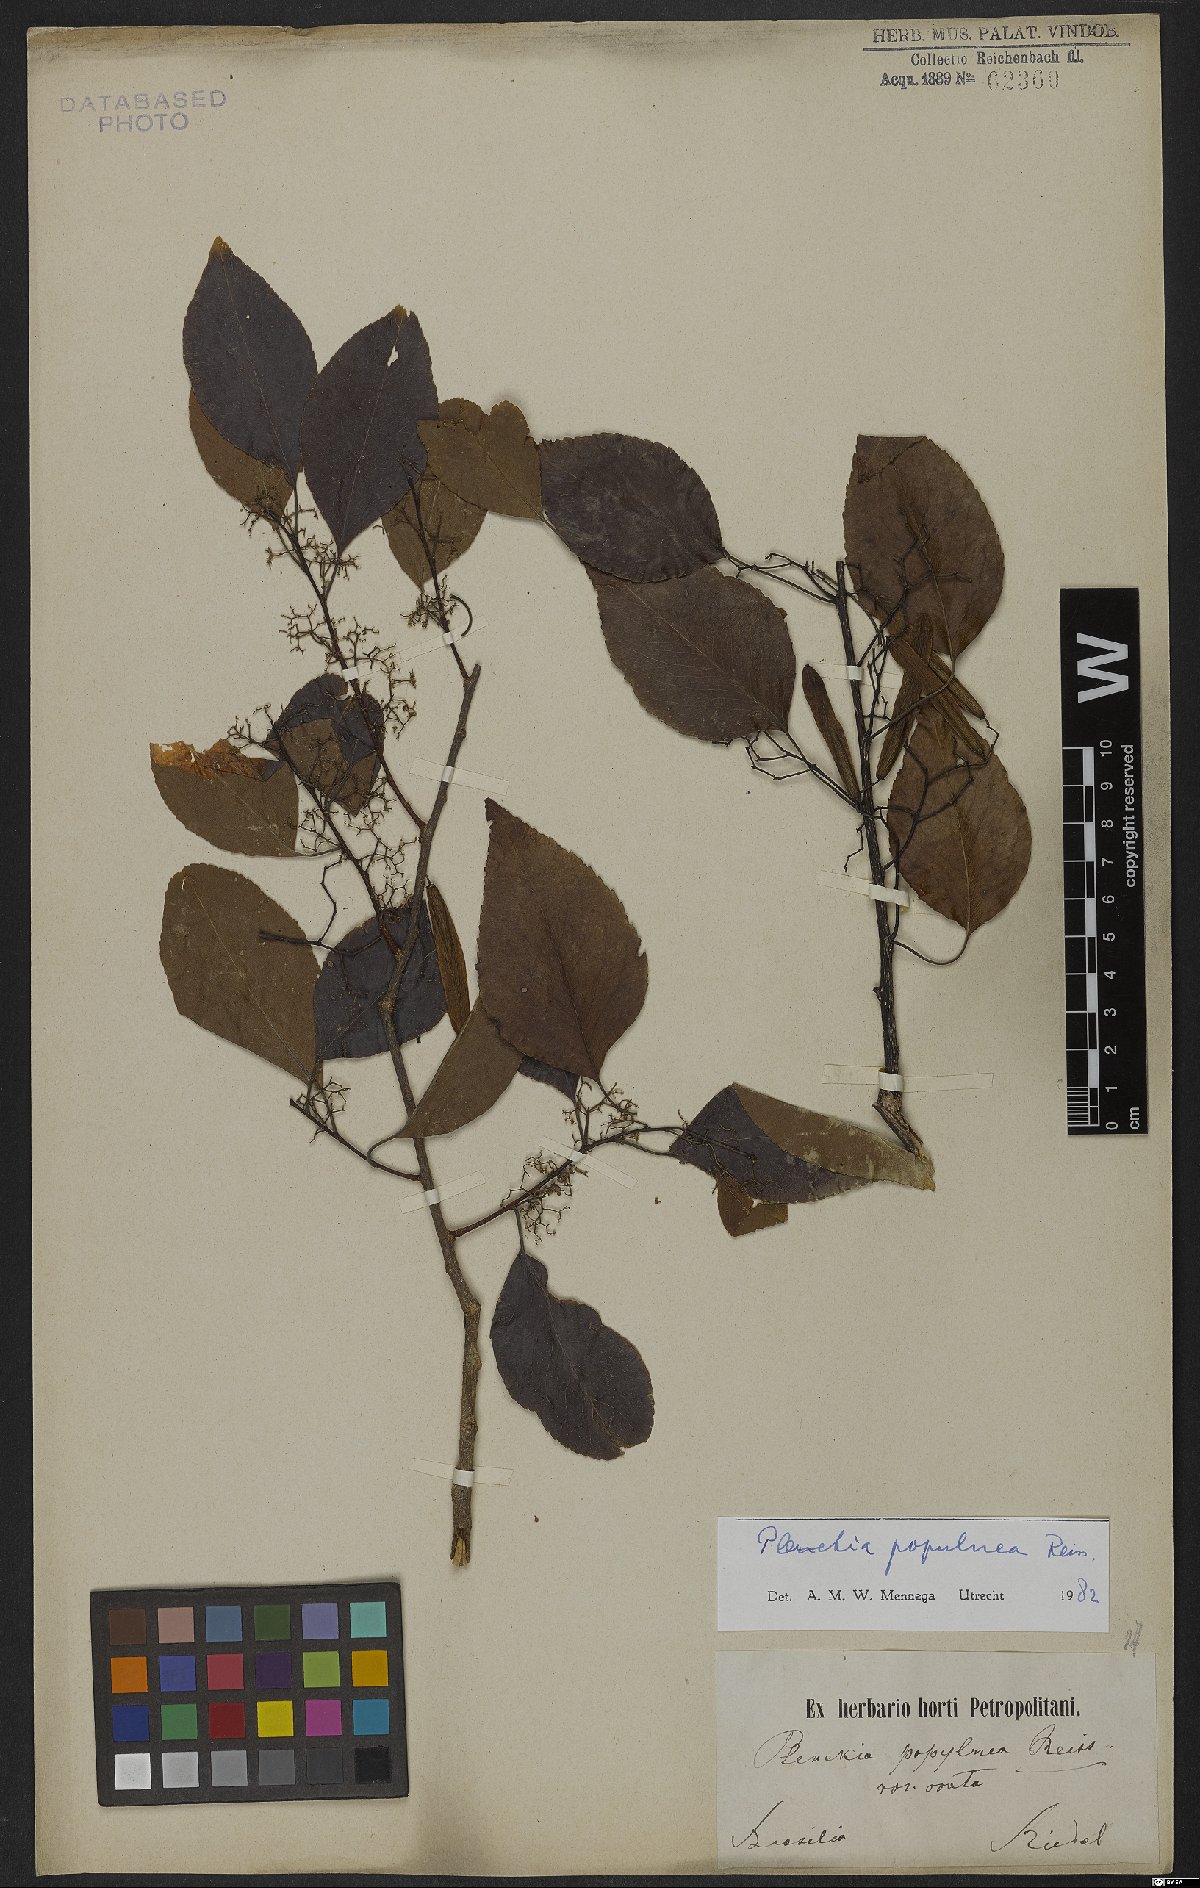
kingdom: Plantae
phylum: Tracheophyta
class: Magnoliopsida
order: Celastrales
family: Celastraceae
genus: Plenckia
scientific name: Plenckia populnea
